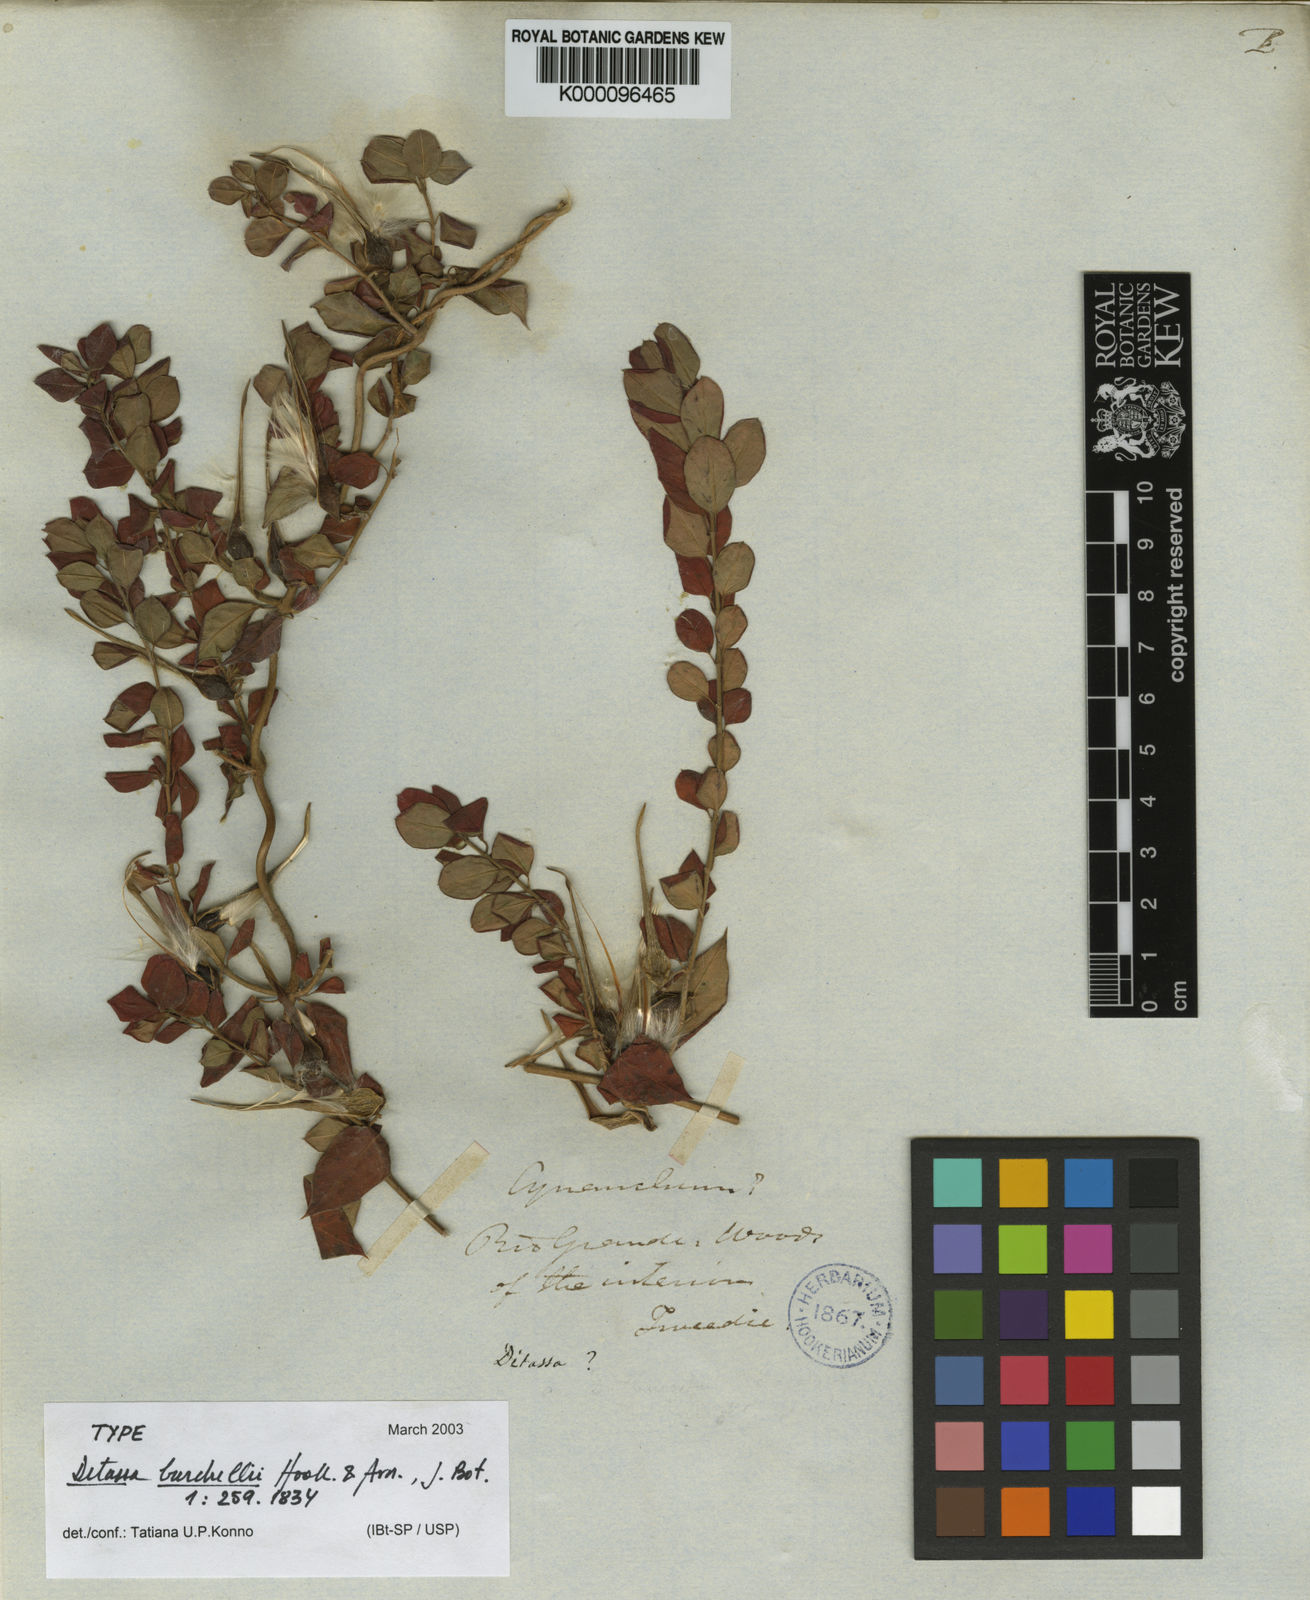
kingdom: Plantae
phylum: Tracheophyta
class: Magnoliopsida
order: Gentianales
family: Apocynaceae
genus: Metastelma
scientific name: Metastelma burchellii
